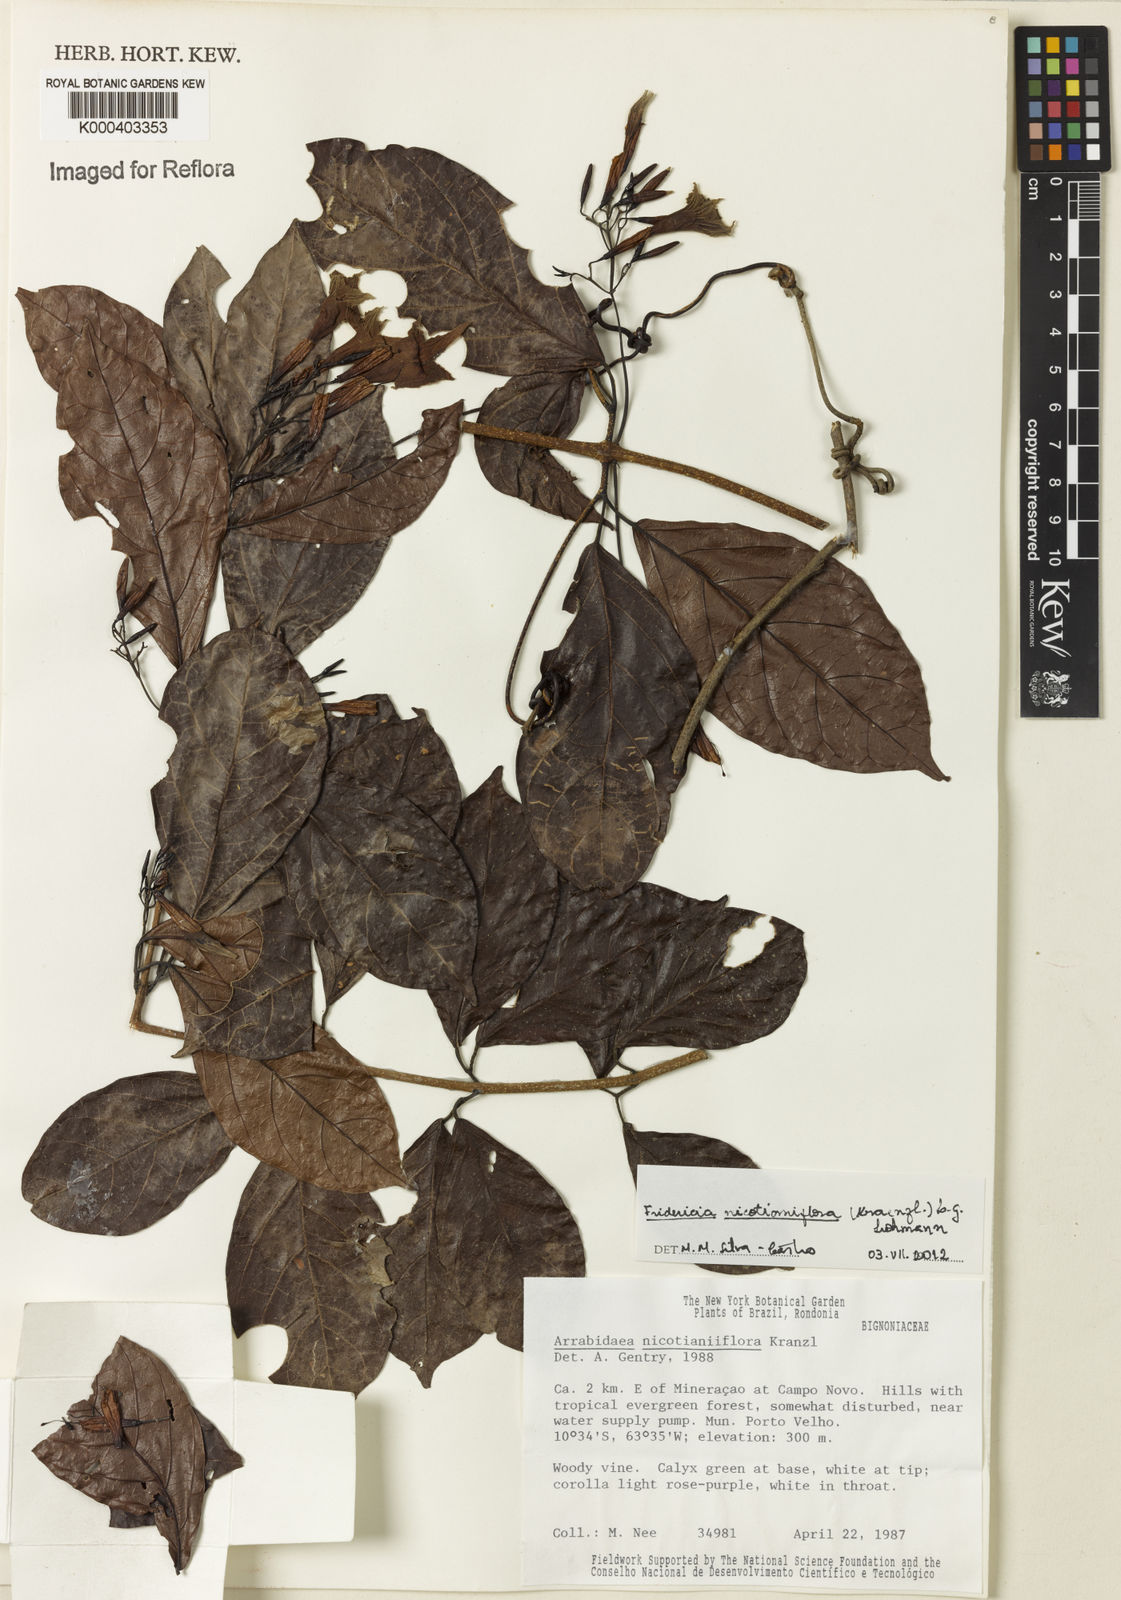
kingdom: Plantae
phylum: Tracheophyta
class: Magnoliopsida
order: Lamiales
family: Bignoniaceae
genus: Fridericia
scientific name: Fridericia nicotianiflora
